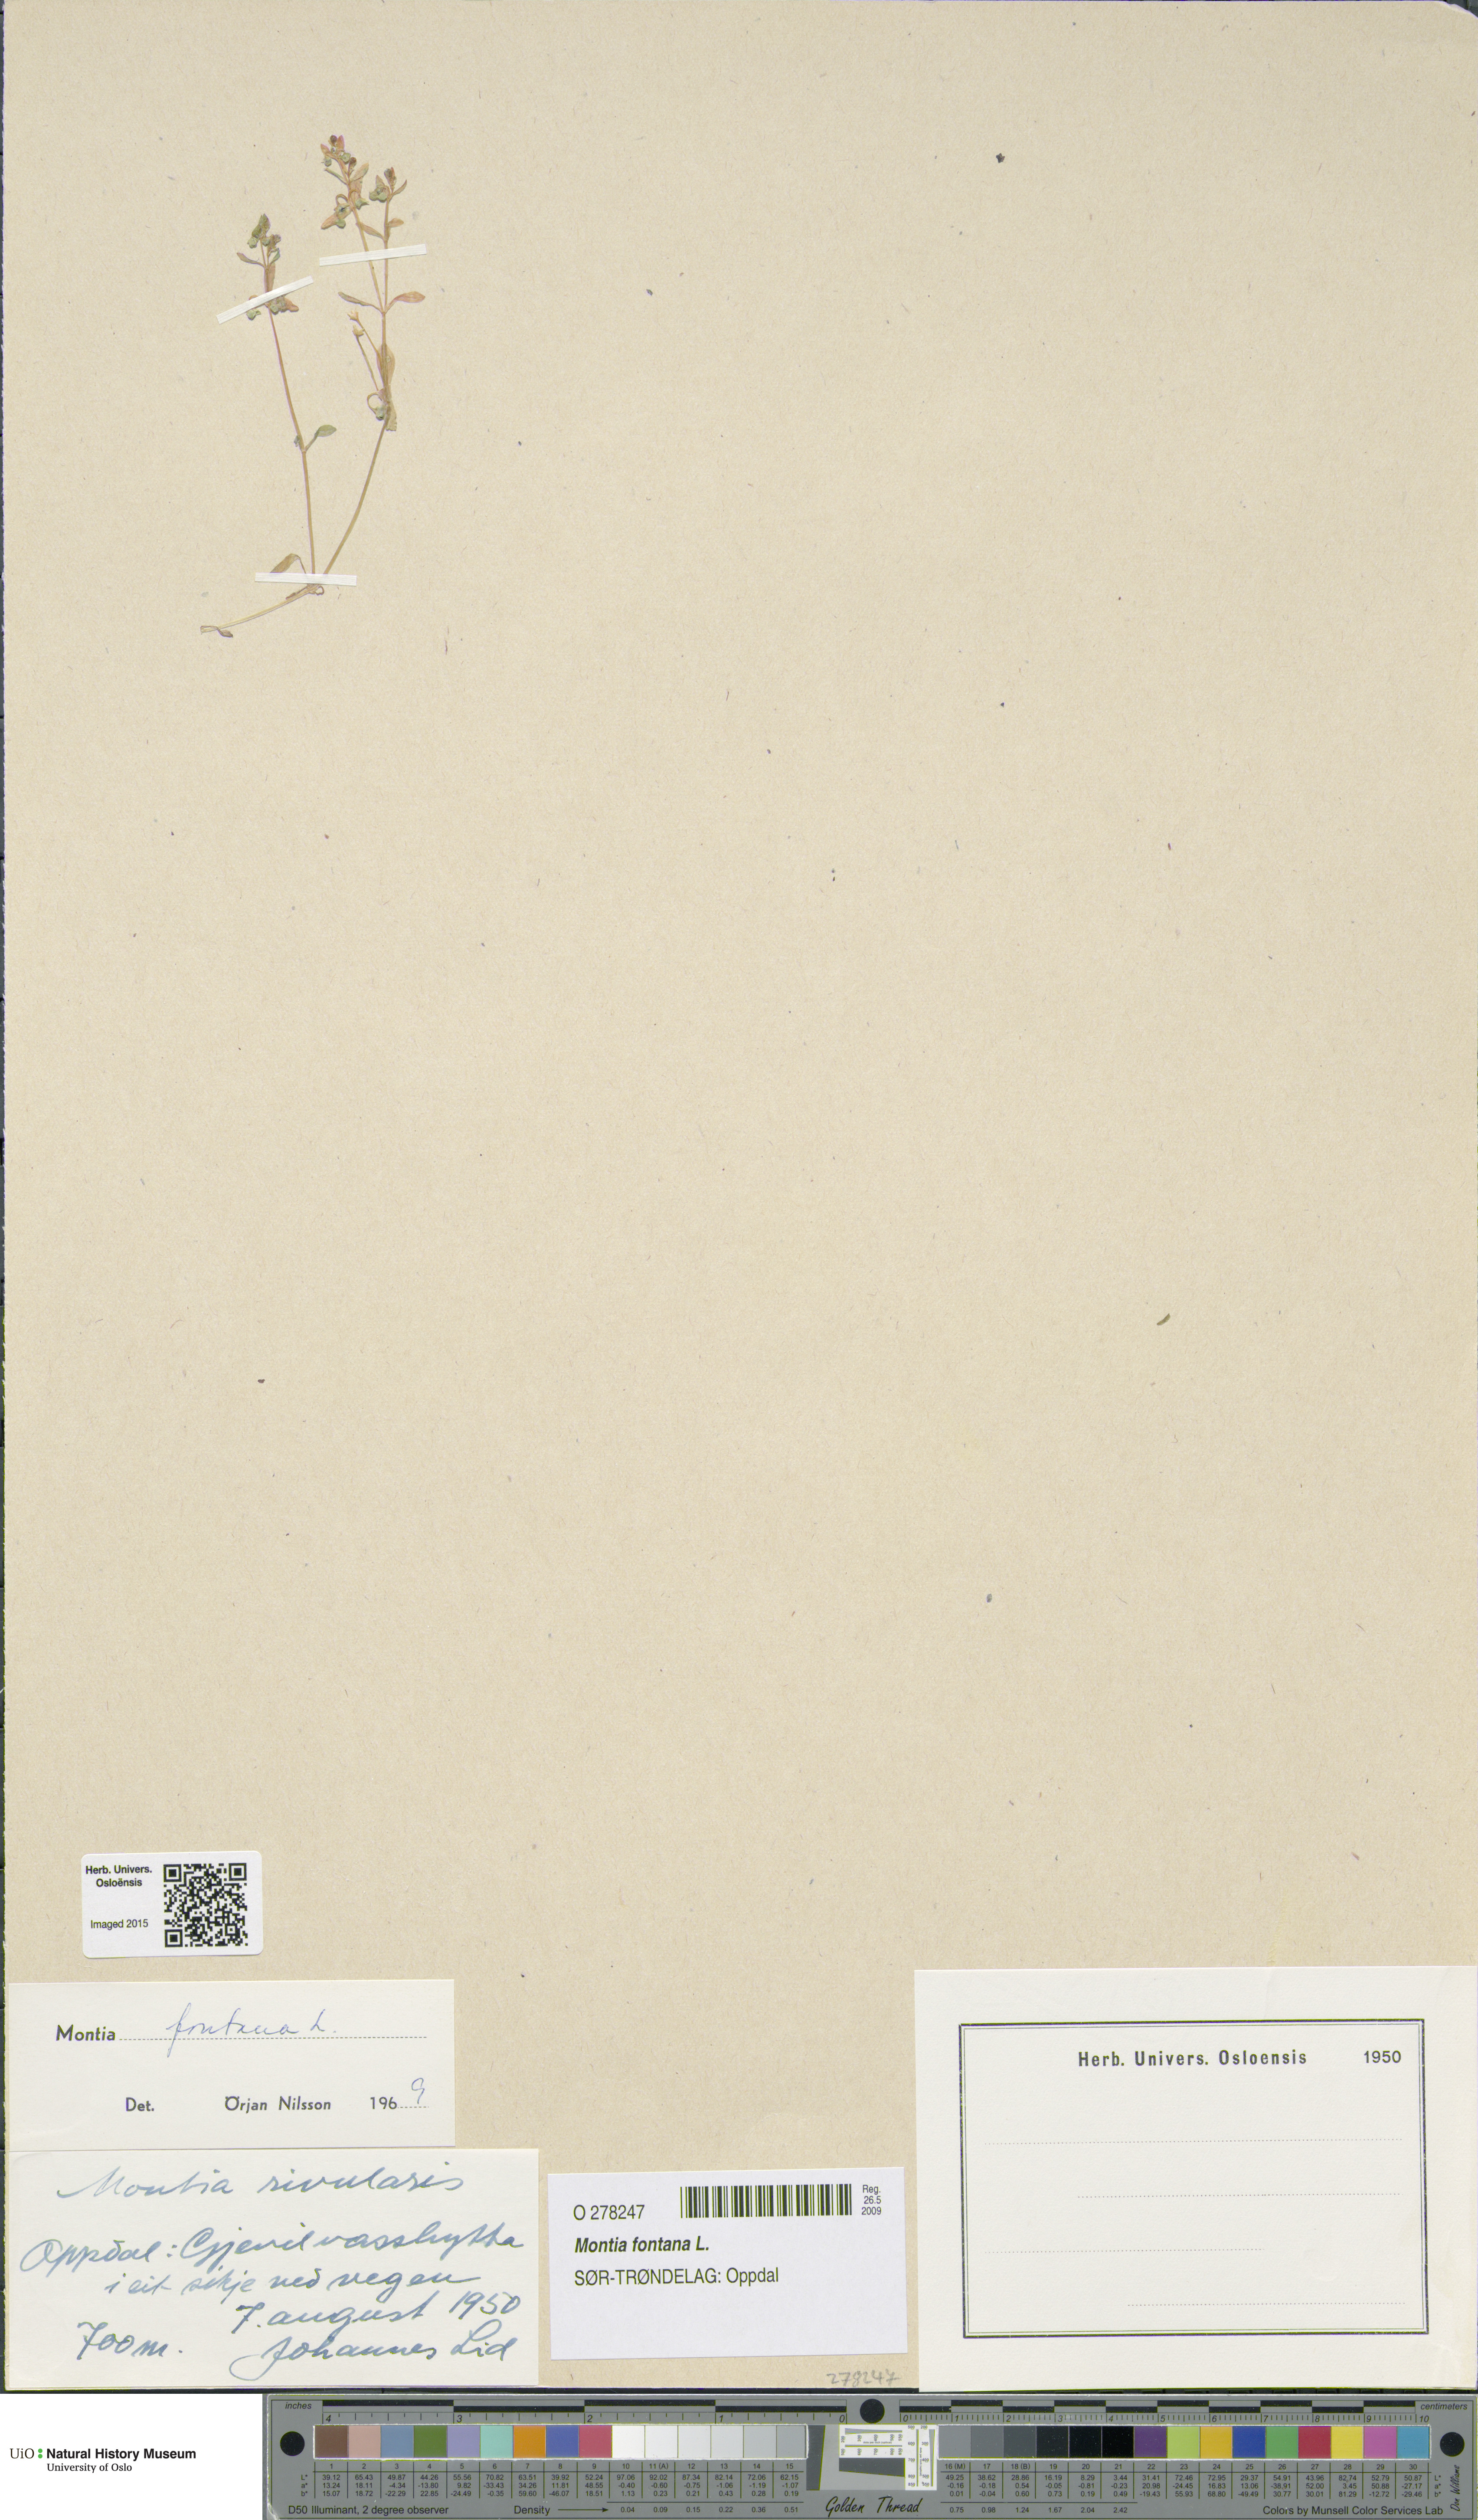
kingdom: Plantae
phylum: Tracheophyta
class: Magnoliopsida
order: Caryophyllales
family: Montiaceae
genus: Montia
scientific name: Montia fontana
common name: Blinks
